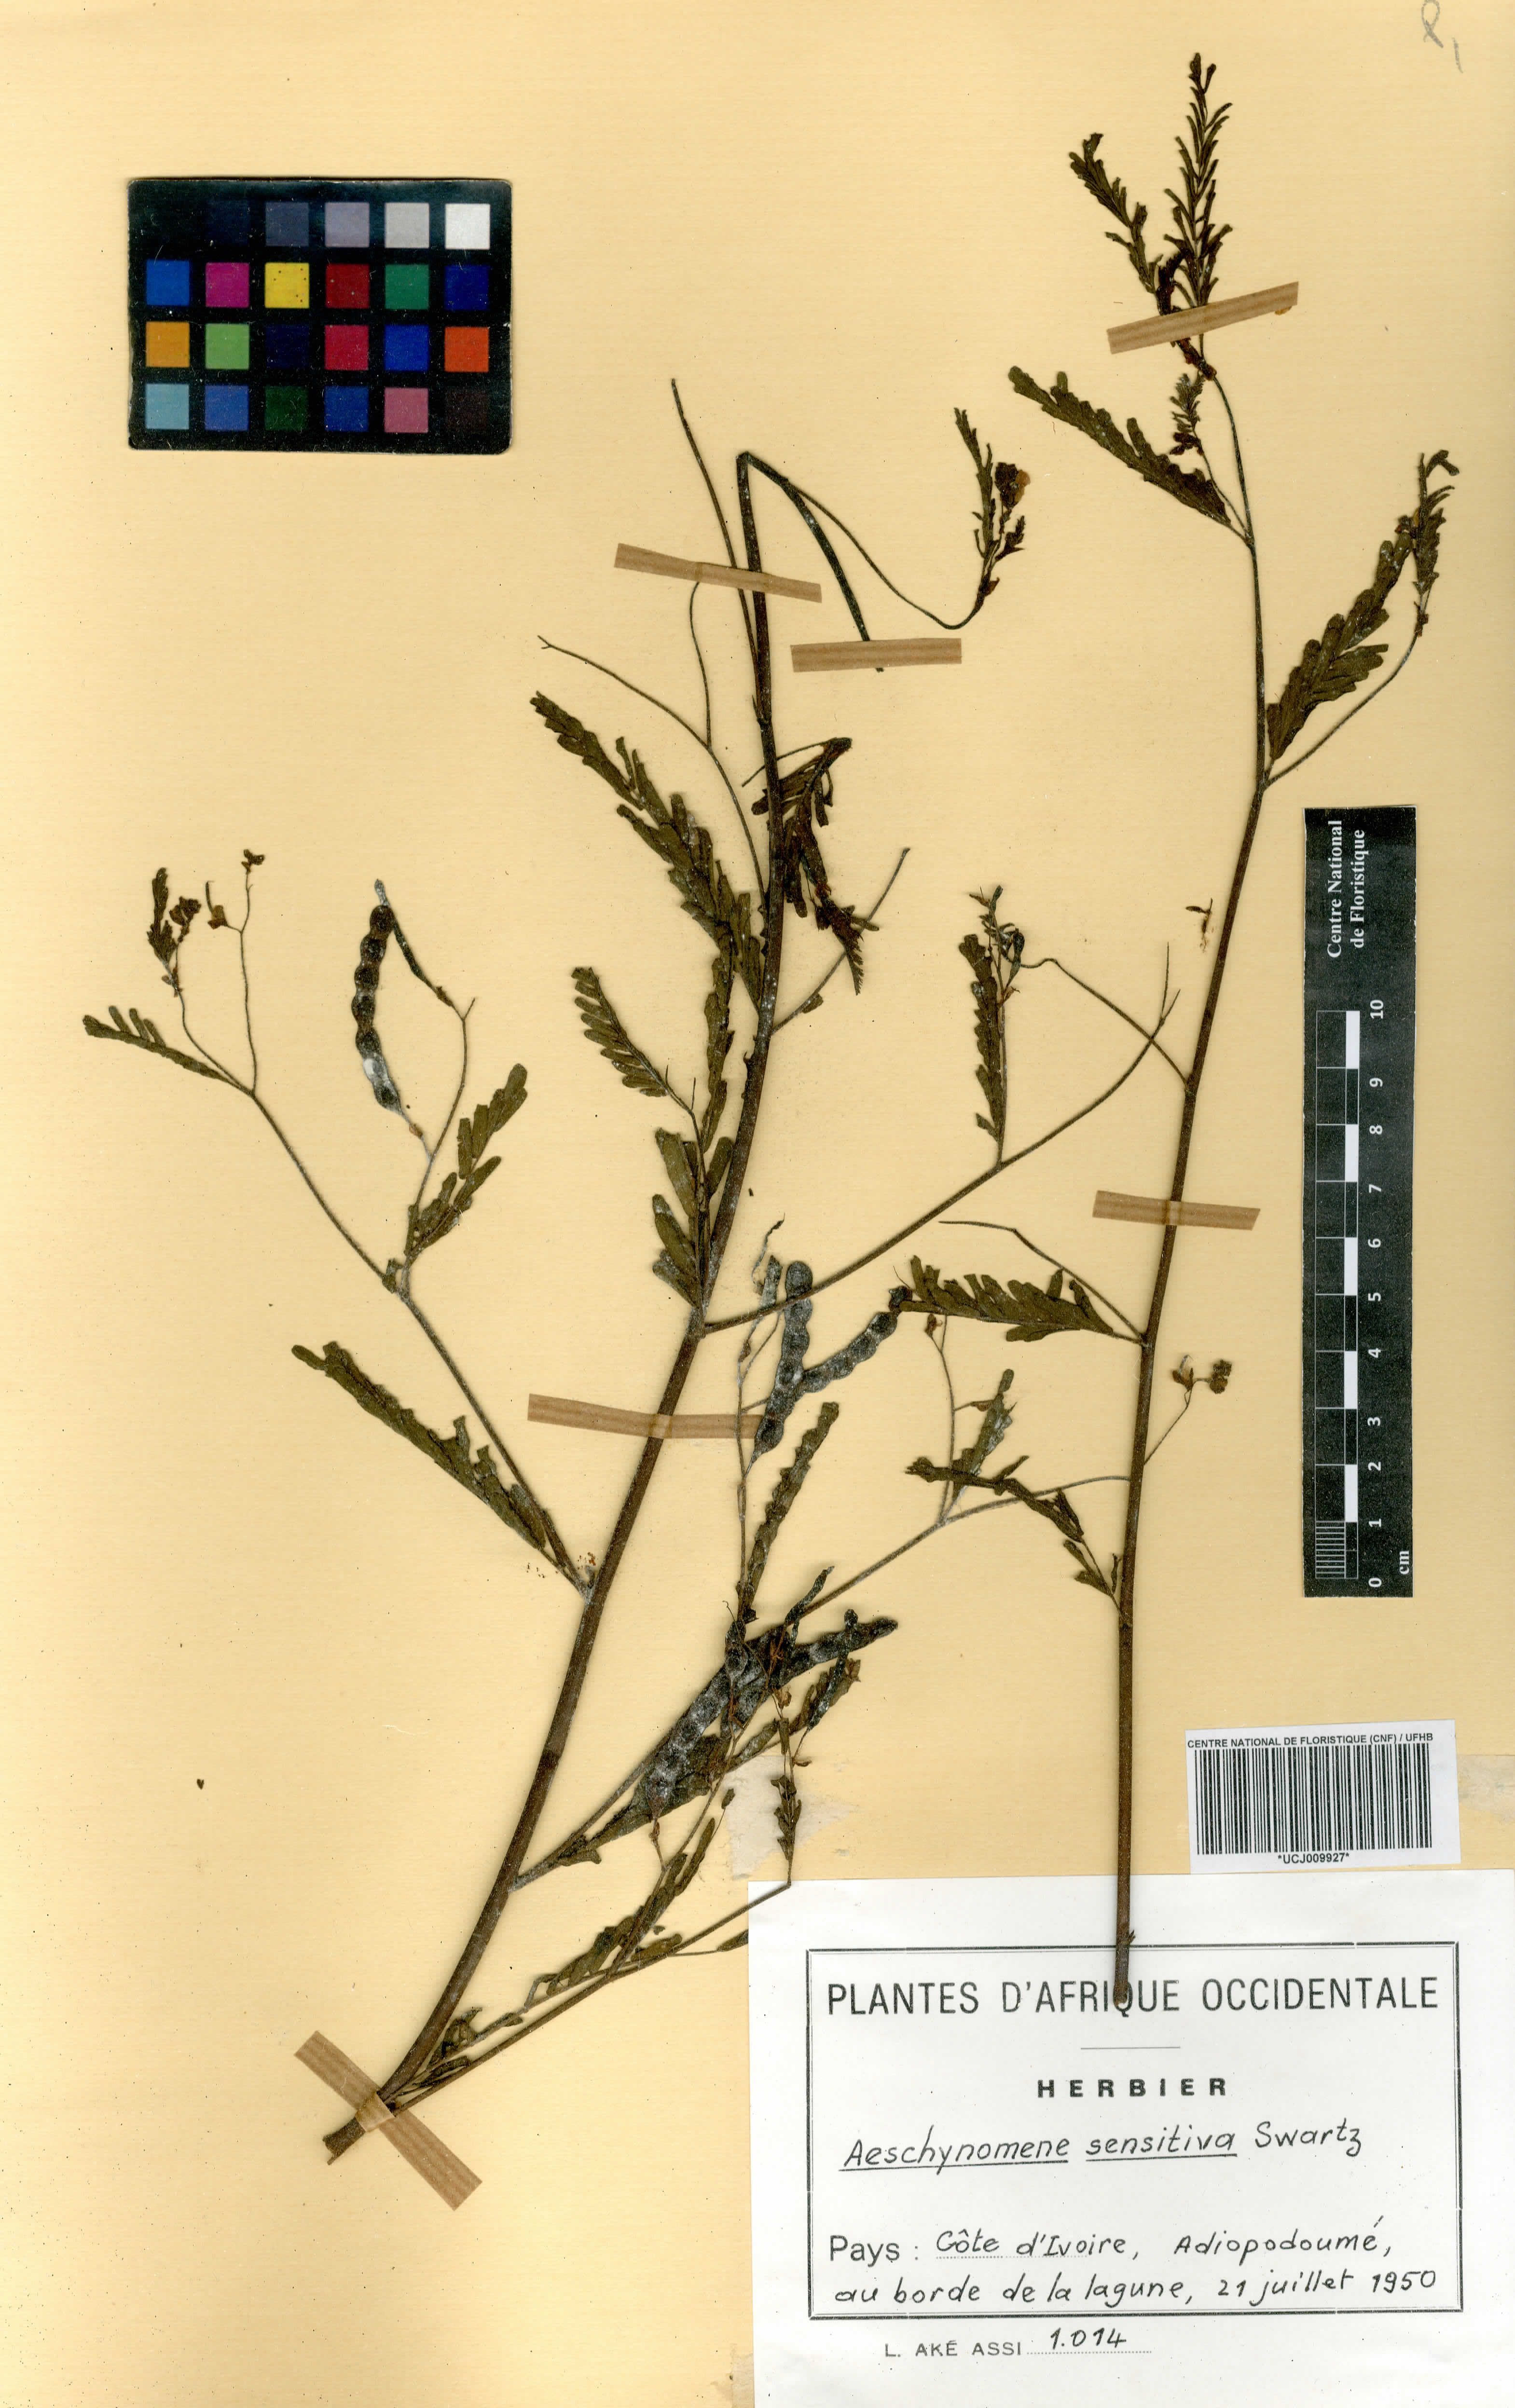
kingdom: Plantae
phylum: Tracheophyta
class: Magnoliopsida
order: Fabales
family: Fabaceae
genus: Aeschynomene
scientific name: Aeschynomene sensitiva
